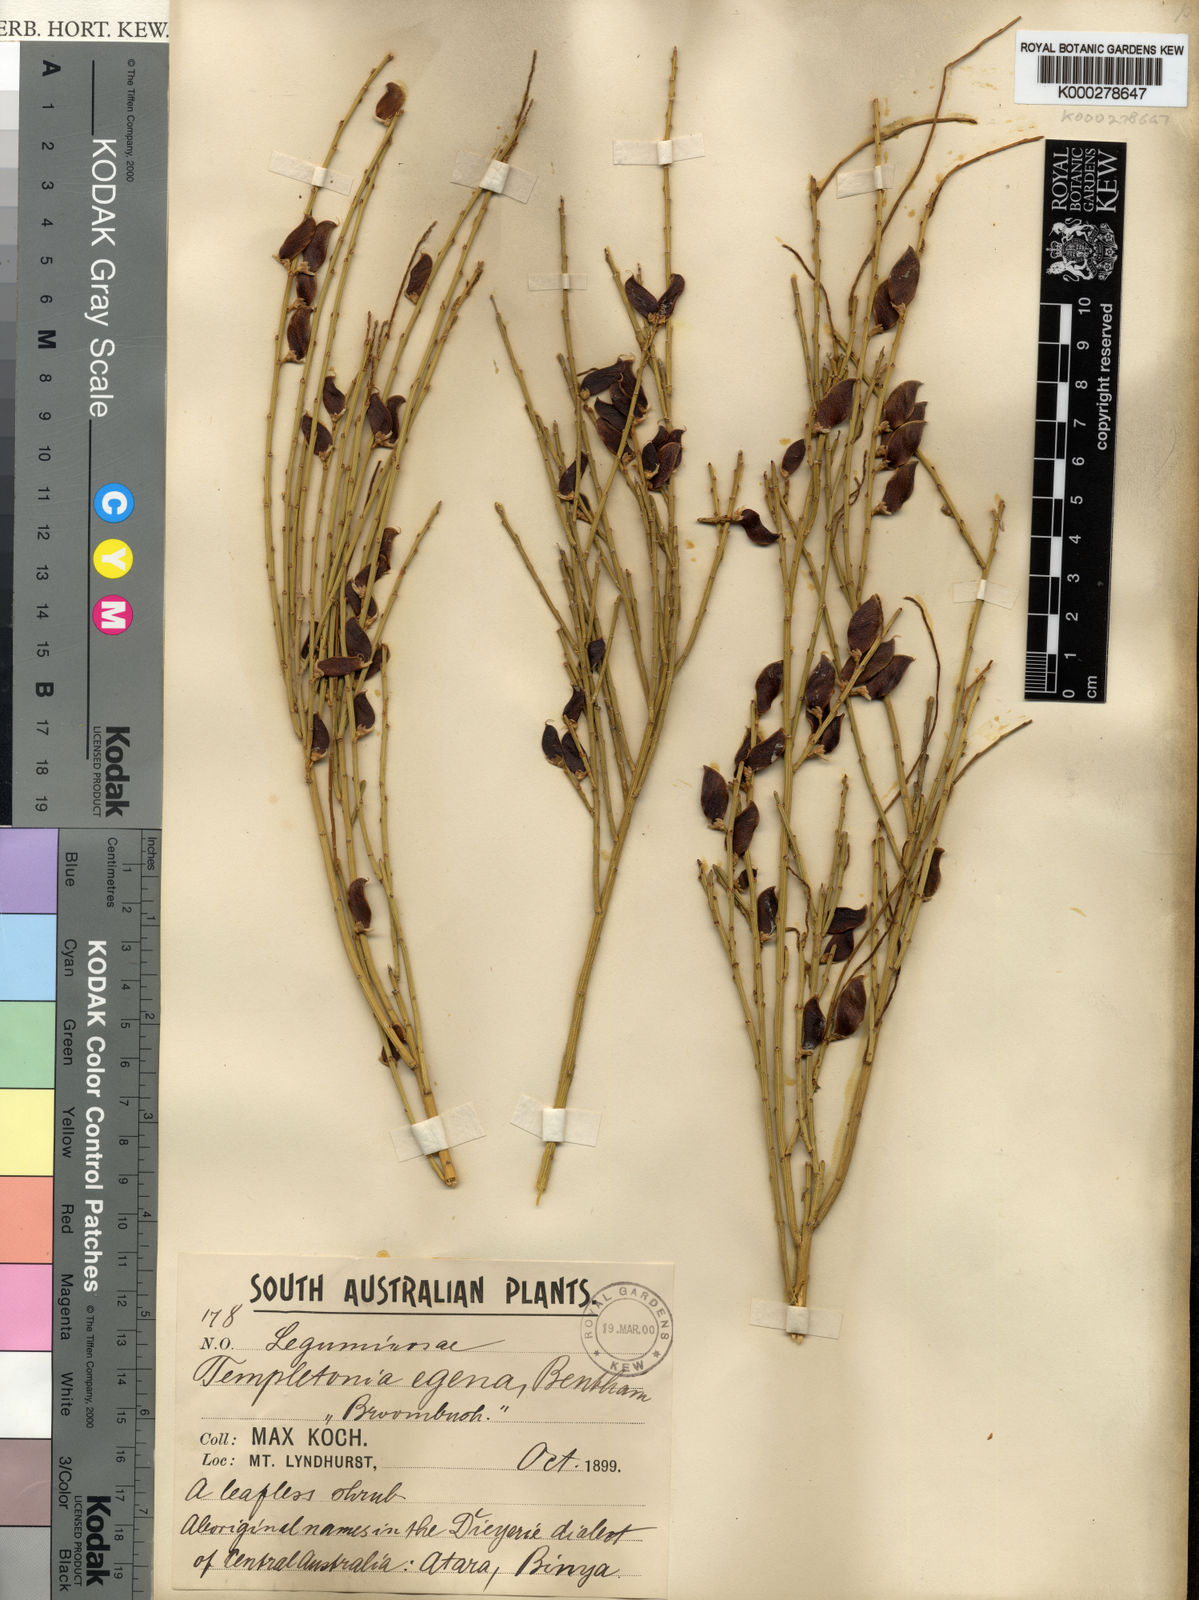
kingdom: Plantae
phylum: Tracheophyta
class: Magnoliopsida
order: Fabales
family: Fabaceae
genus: Templetonia
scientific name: Templetonia egena
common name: Desert broombush
